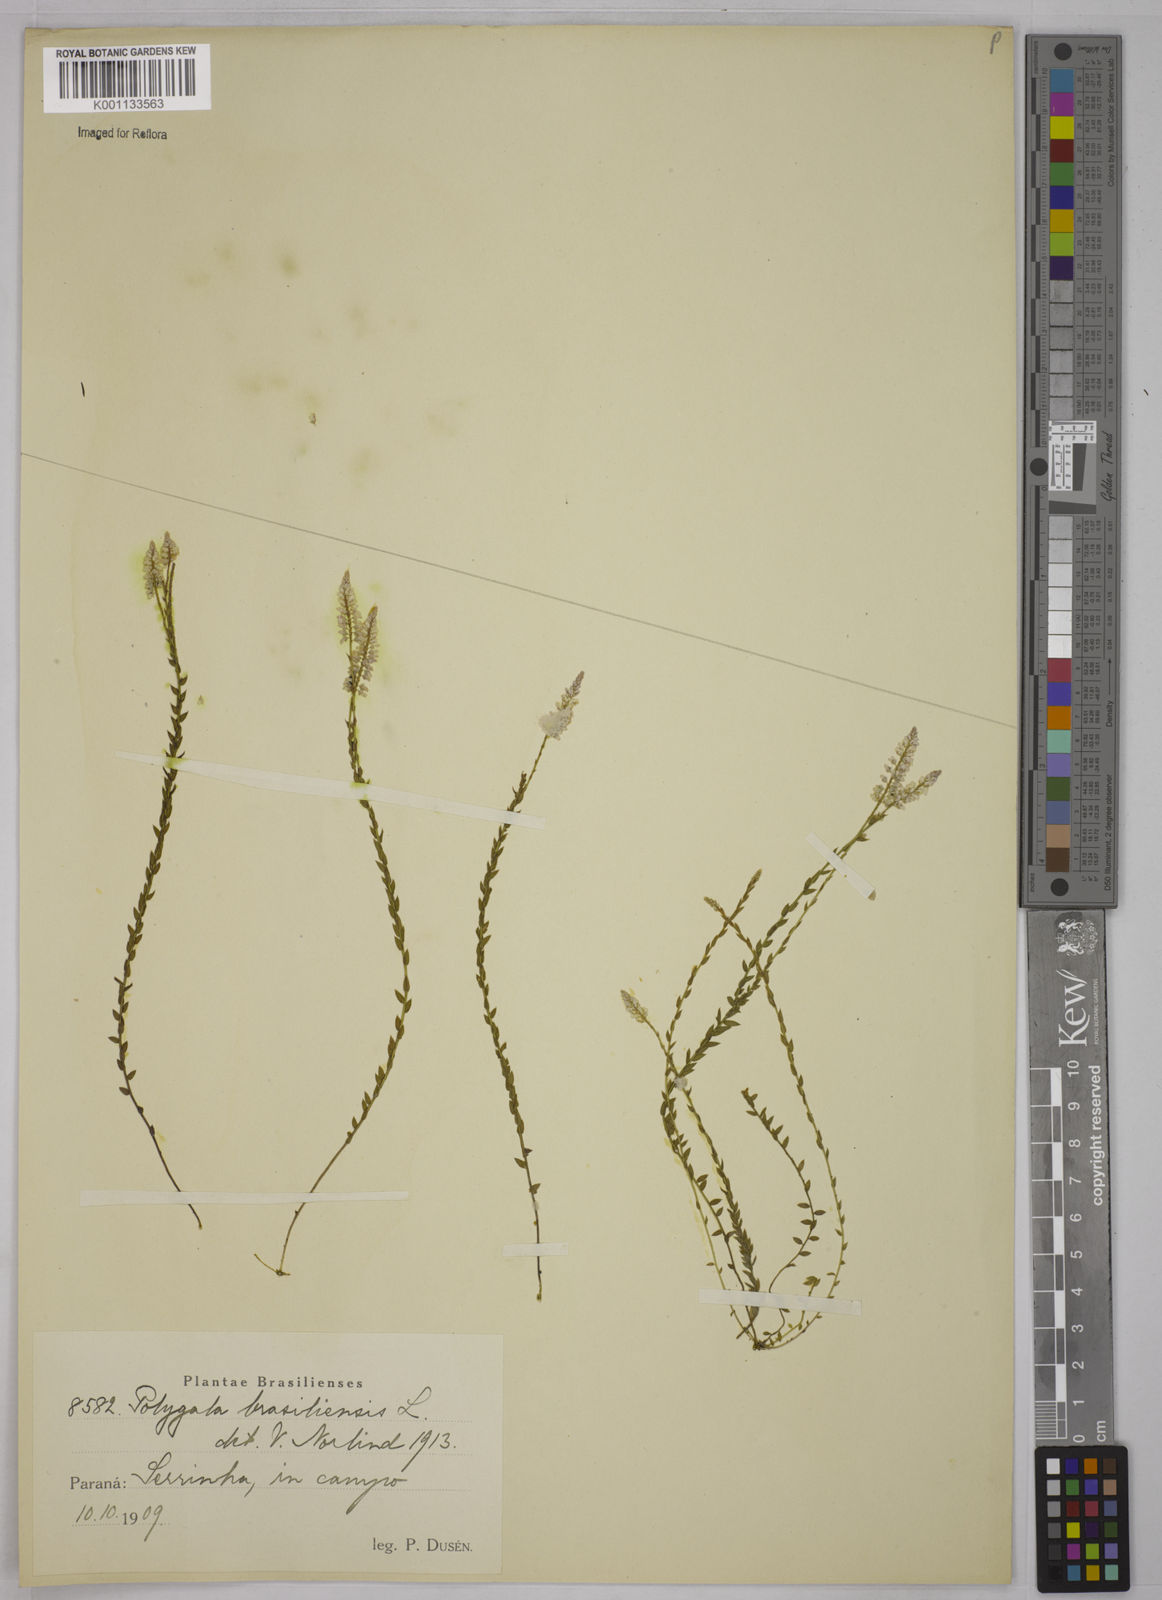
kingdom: Plantae
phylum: Tracheophyta
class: Magnoliopsida
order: Fabales
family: Polygalaceae
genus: Polygala
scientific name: Polygala brasiliensis
